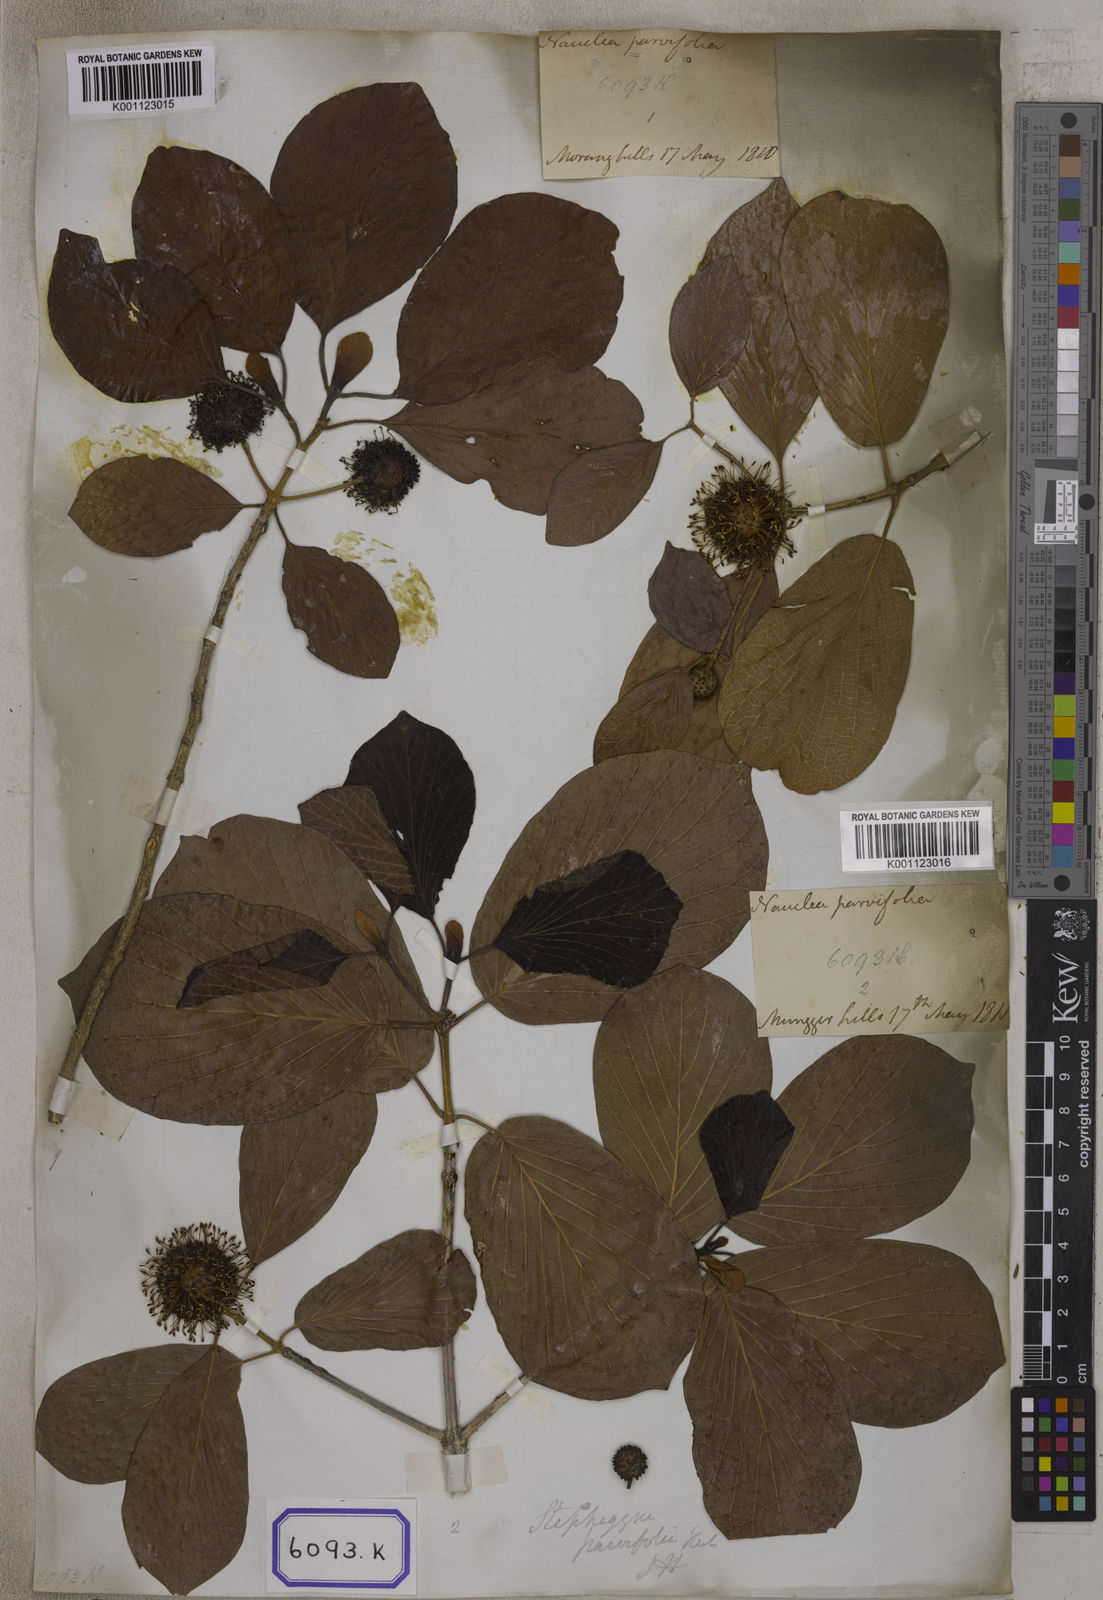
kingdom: Plantae
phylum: Tracheophyta
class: Magnoliopsida
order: Gentianales
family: Rubiaceae
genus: Nauclea
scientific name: Nauclea
